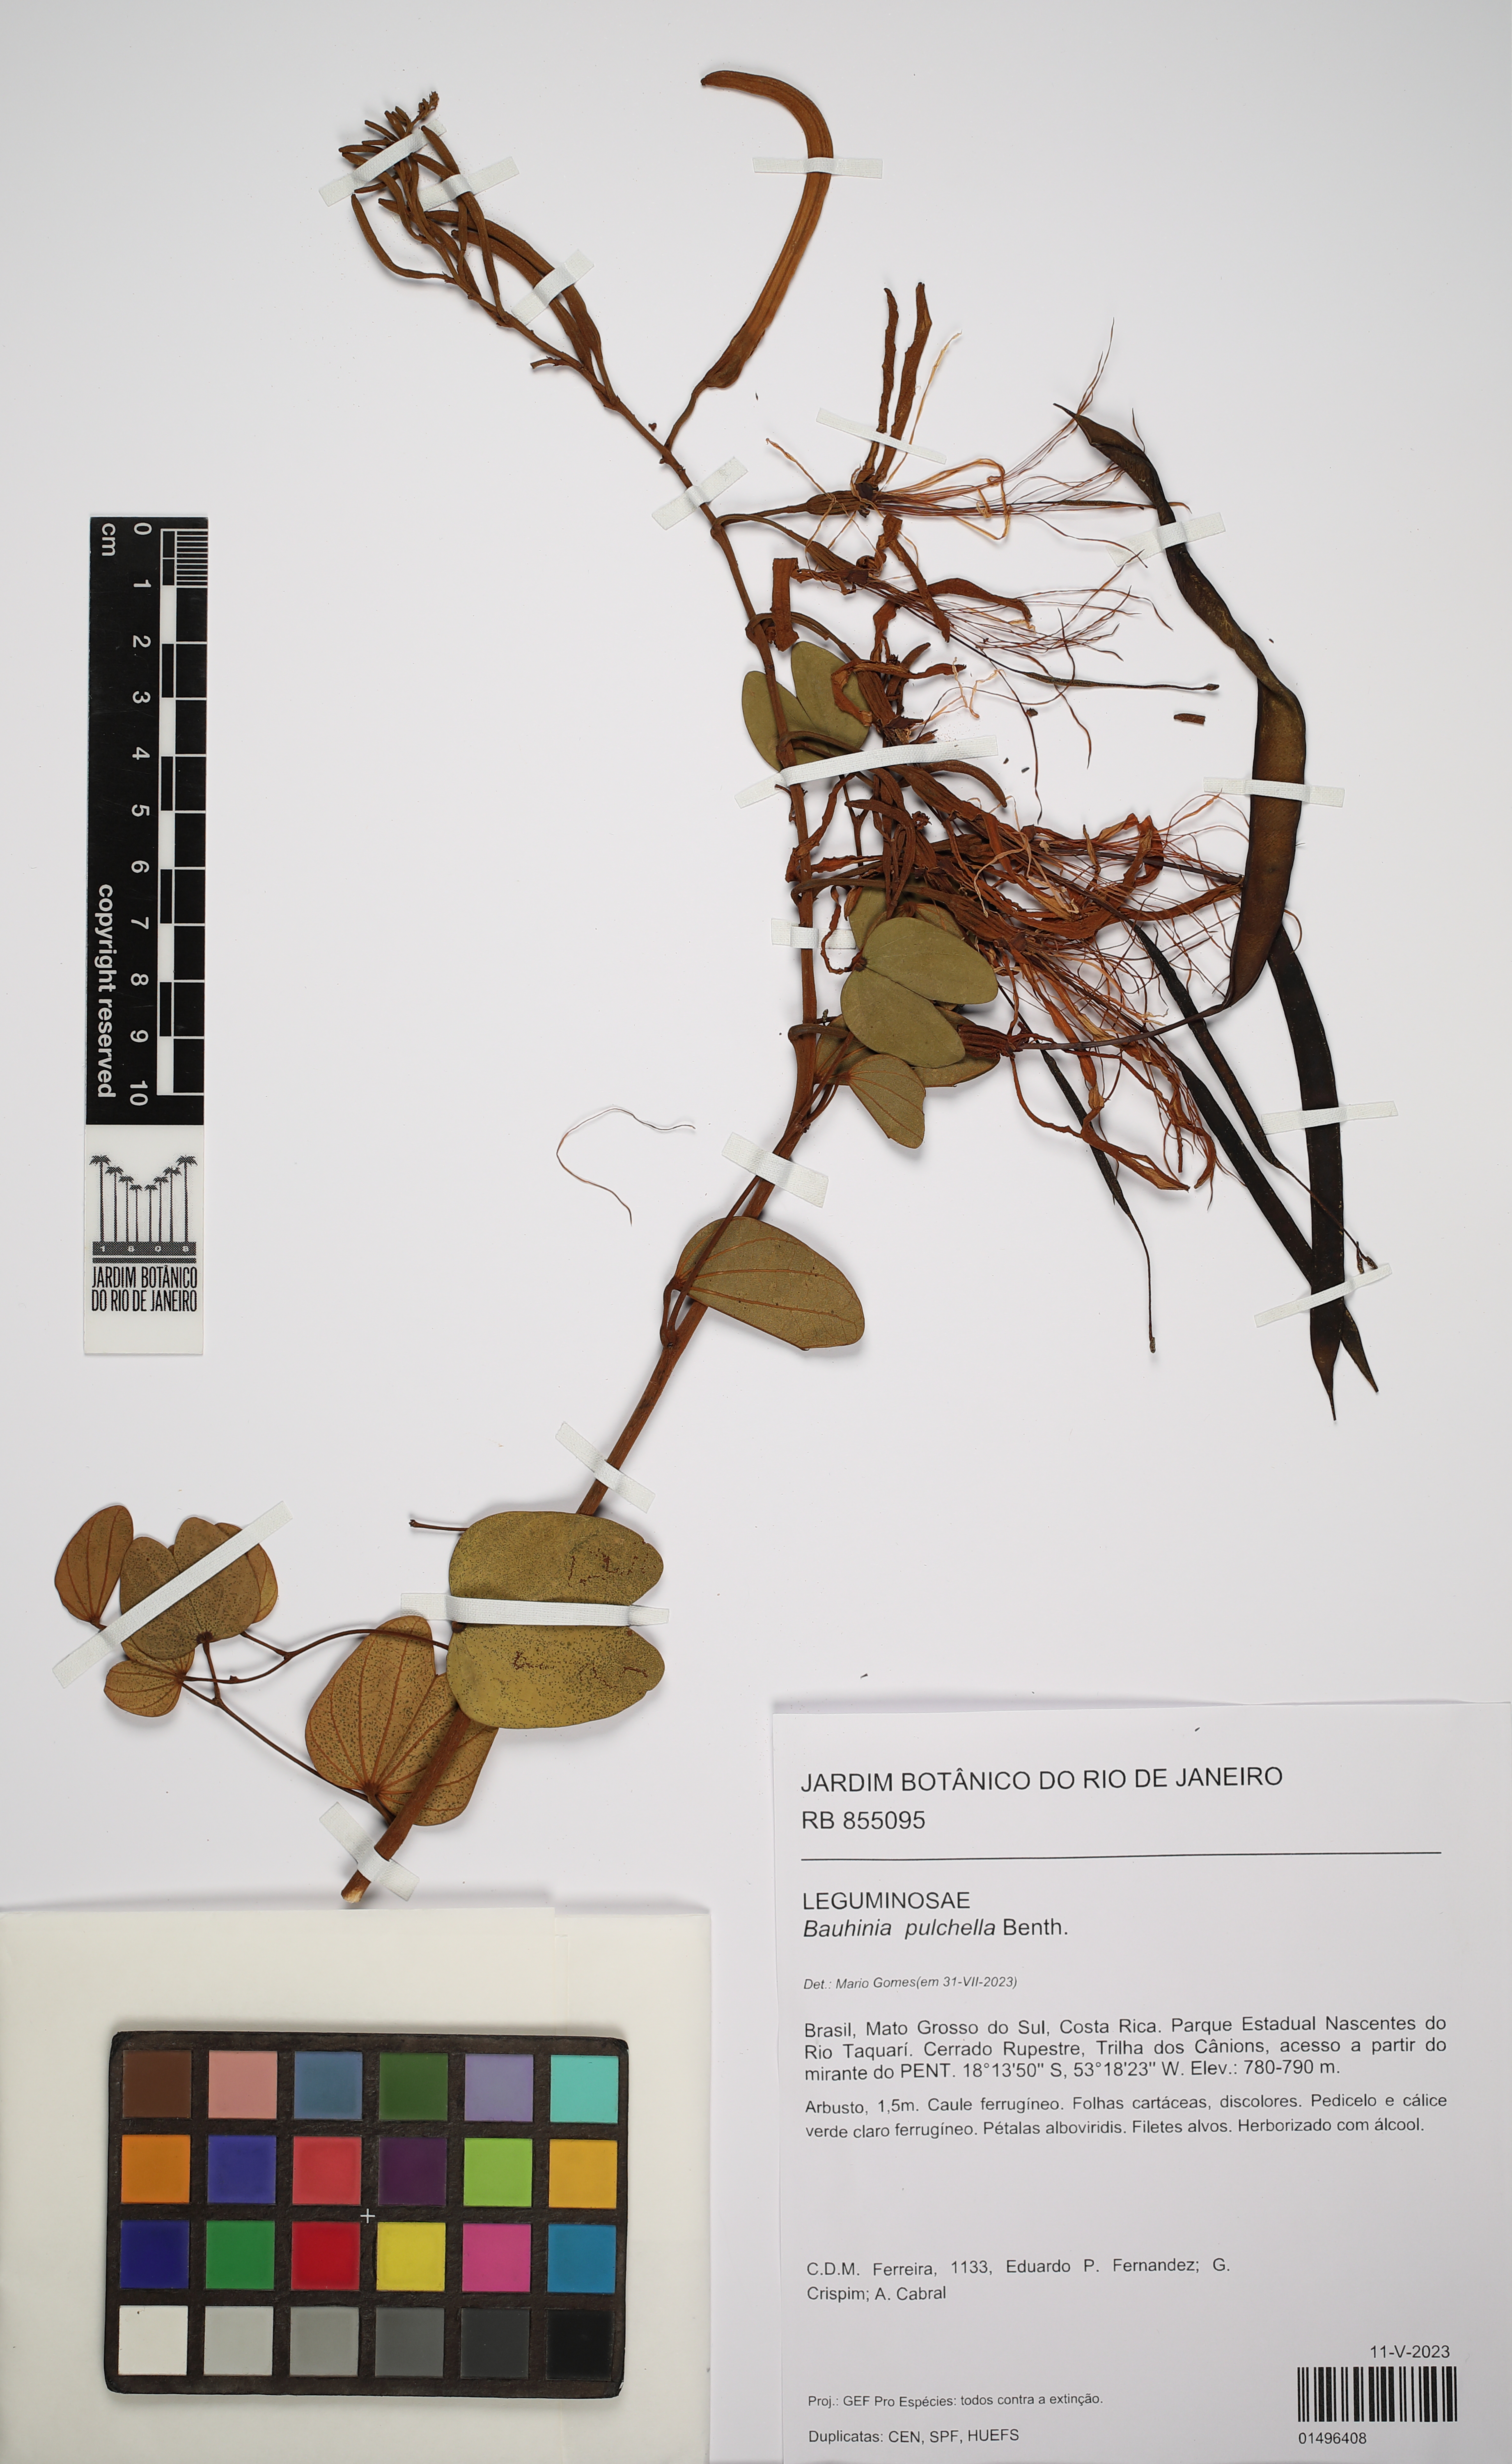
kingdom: Plantae
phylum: Tracheophyta
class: Magnoliopsida
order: Fabales
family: Fabaceae
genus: Bauhinia
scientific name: Bauhinia pulchella
